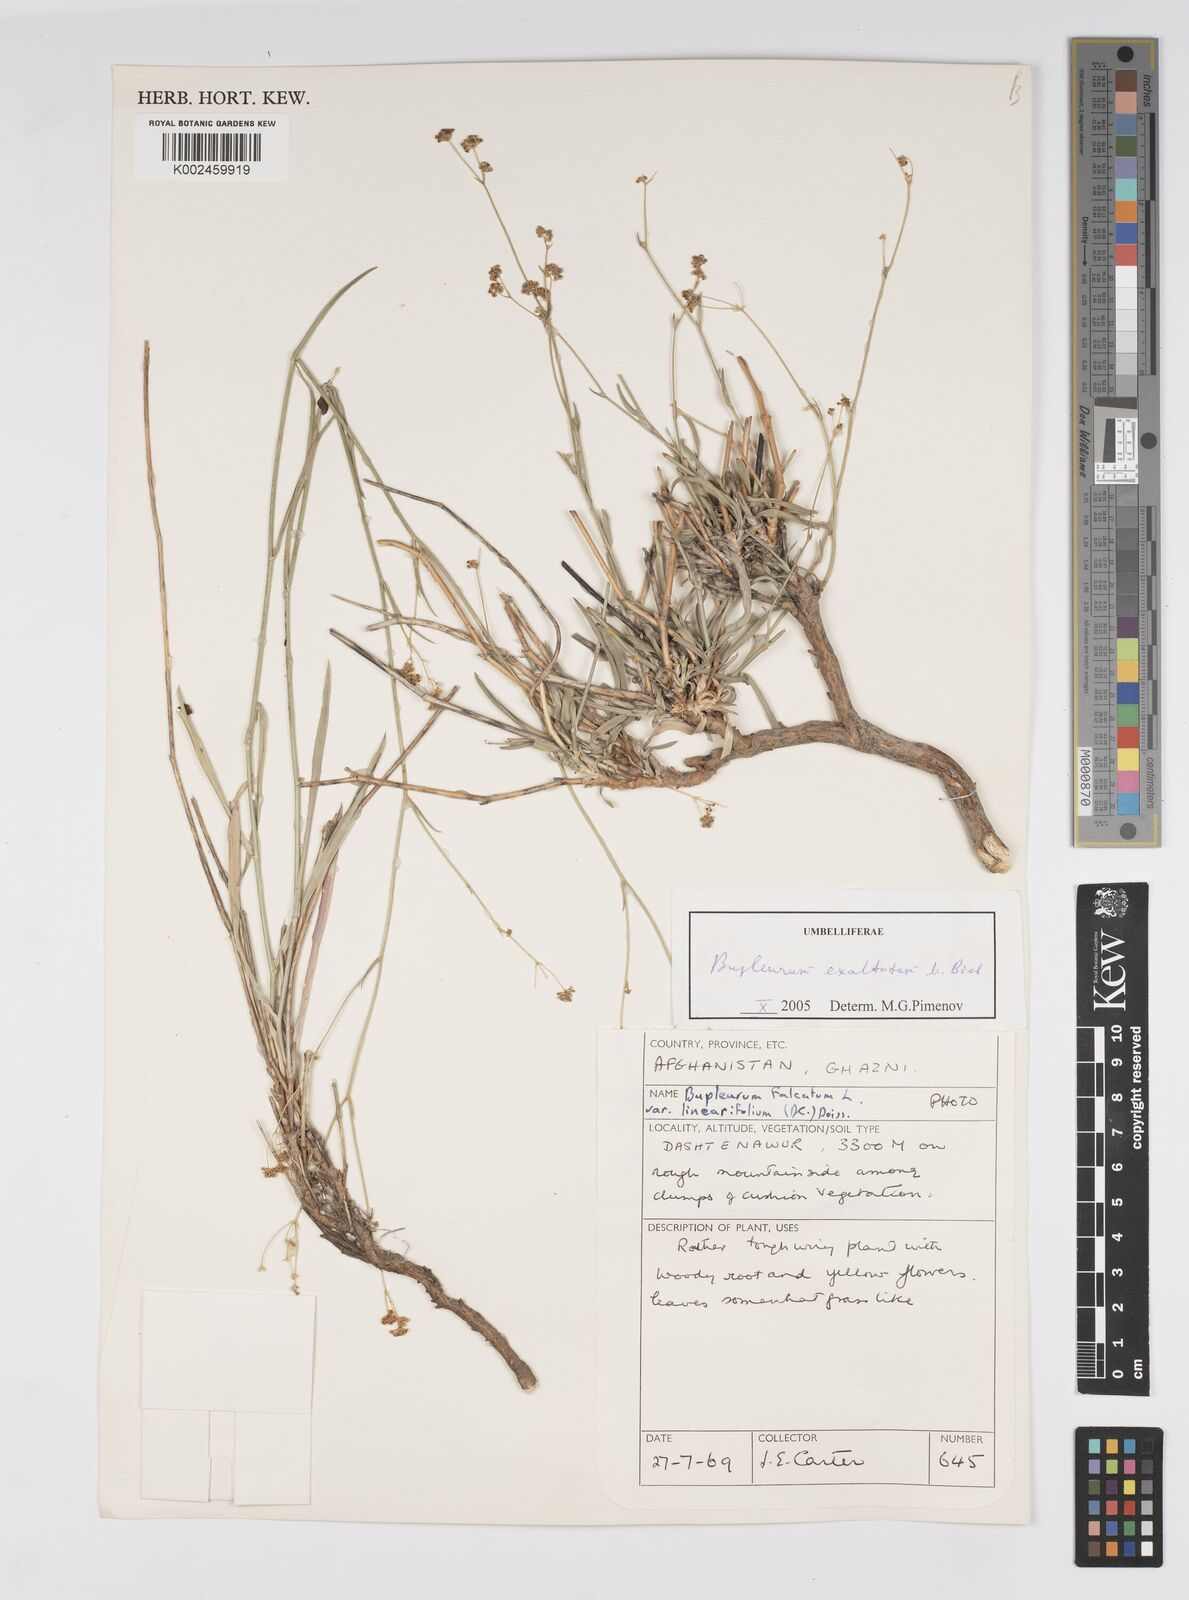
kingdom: Plantae
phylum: Tracheophyta
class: Magnoliopsida
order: Apiales
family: Apiaceae
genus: Bupleurum
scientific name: Bupleurum falcatum
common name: Sickle-leaved hare's-ear
